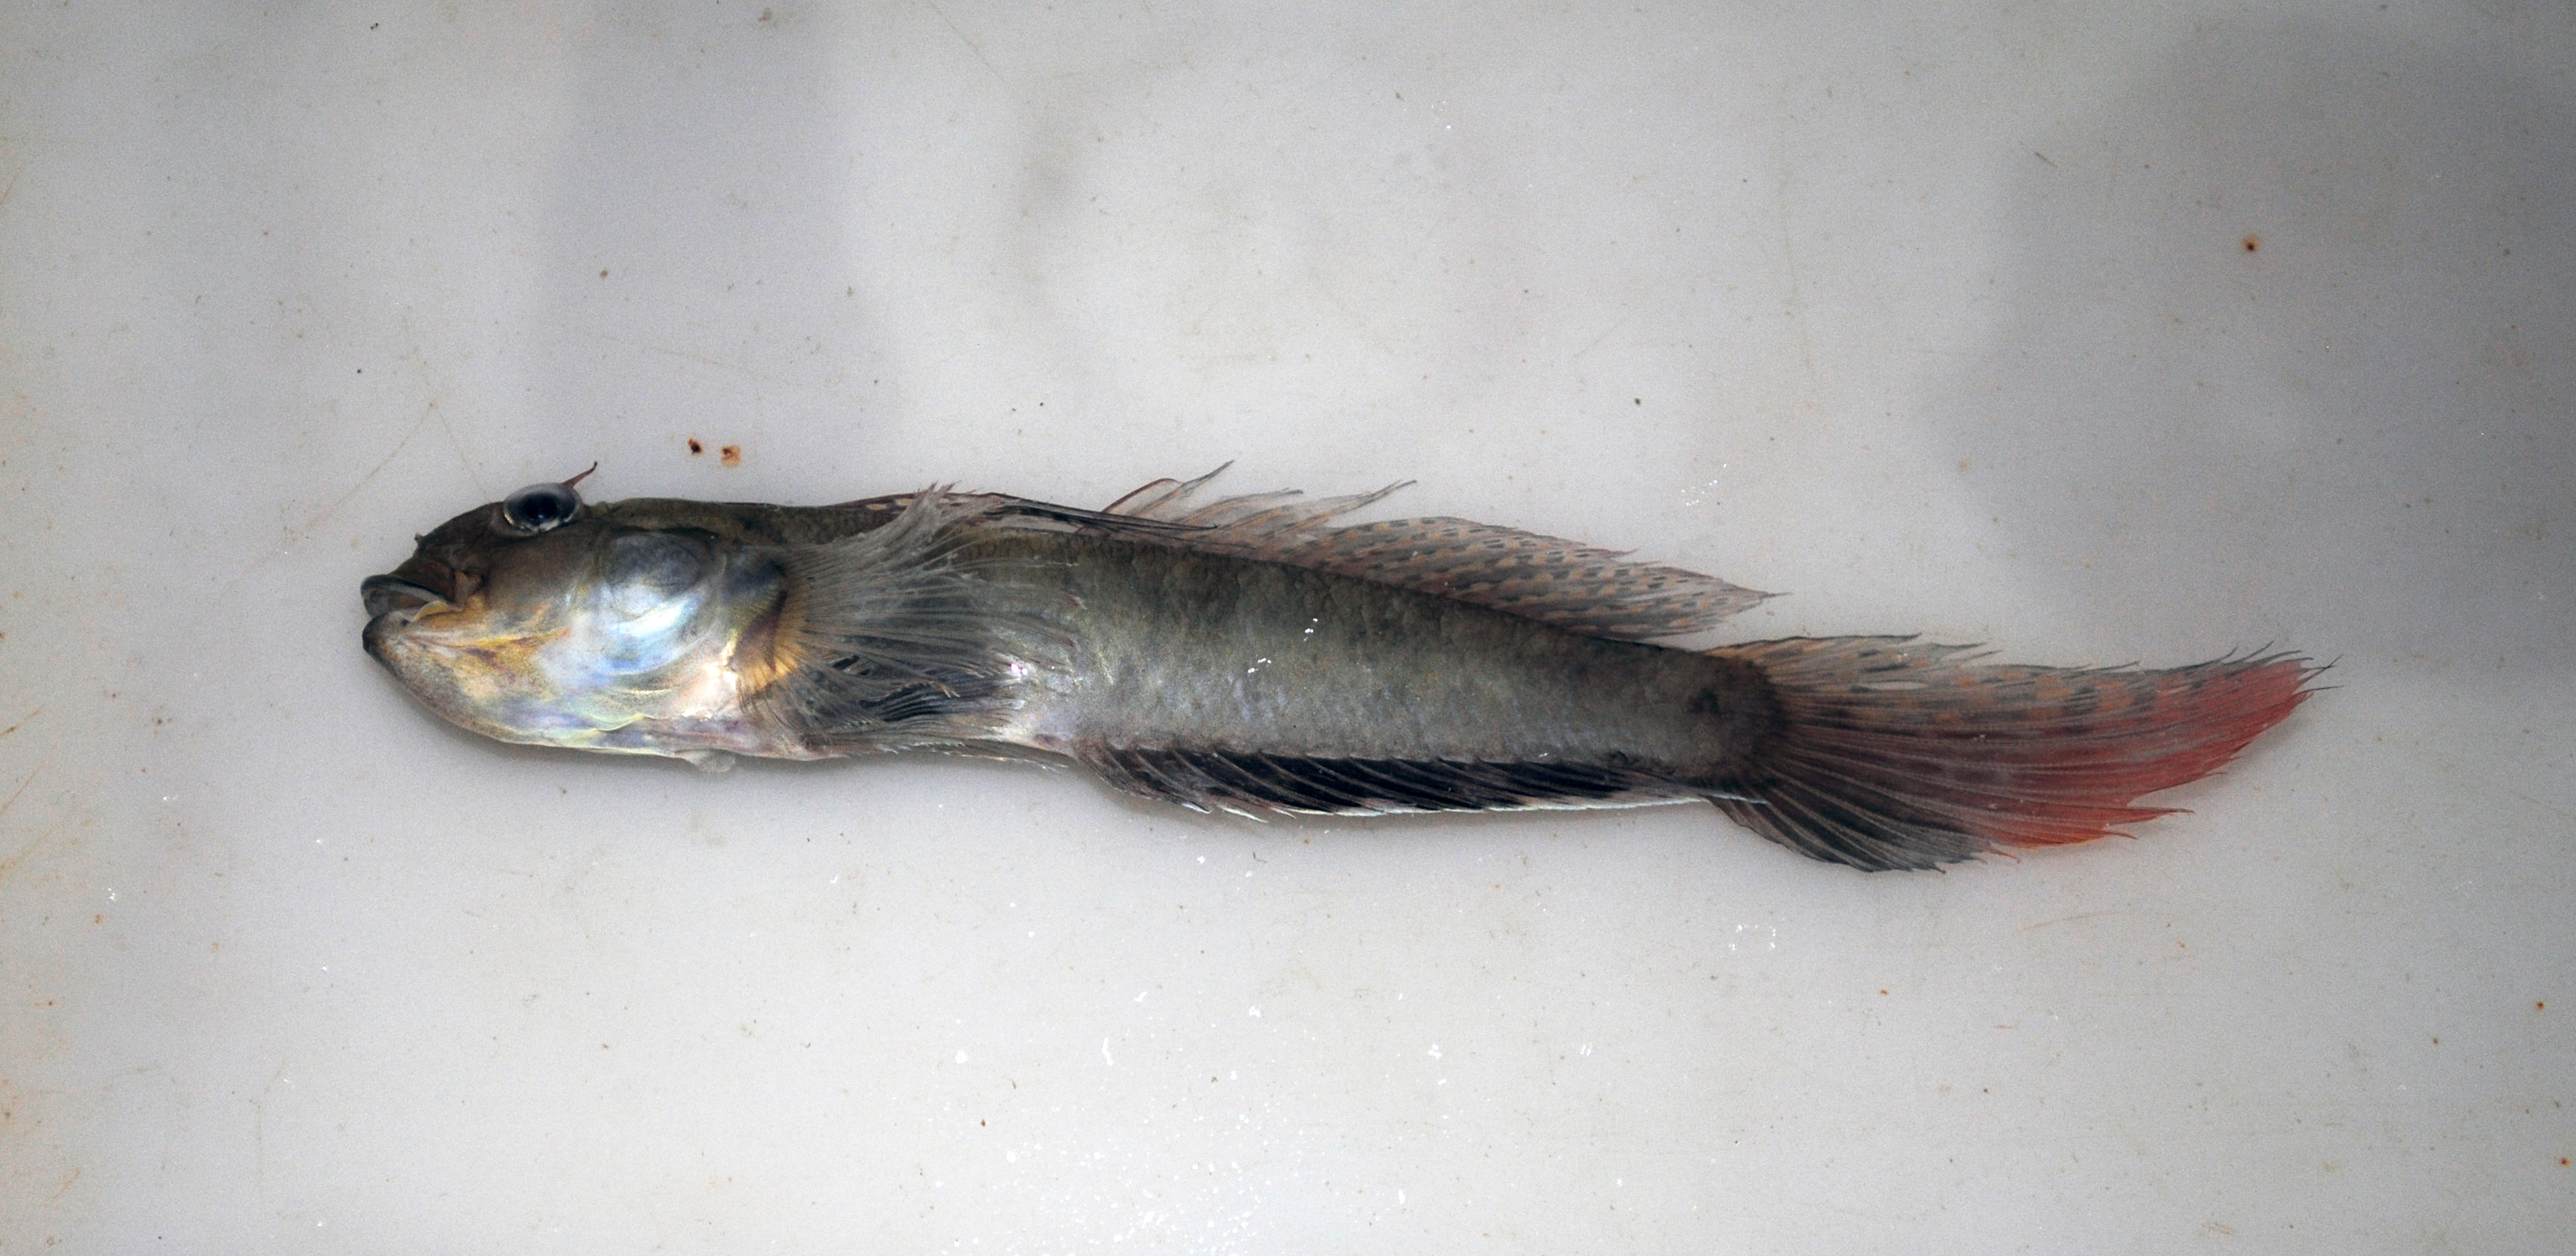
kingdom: Animalia
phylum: Chordata
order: Perciformes
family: Gobiidae
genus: Oxyurichthys
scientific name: Oxyurichthys
